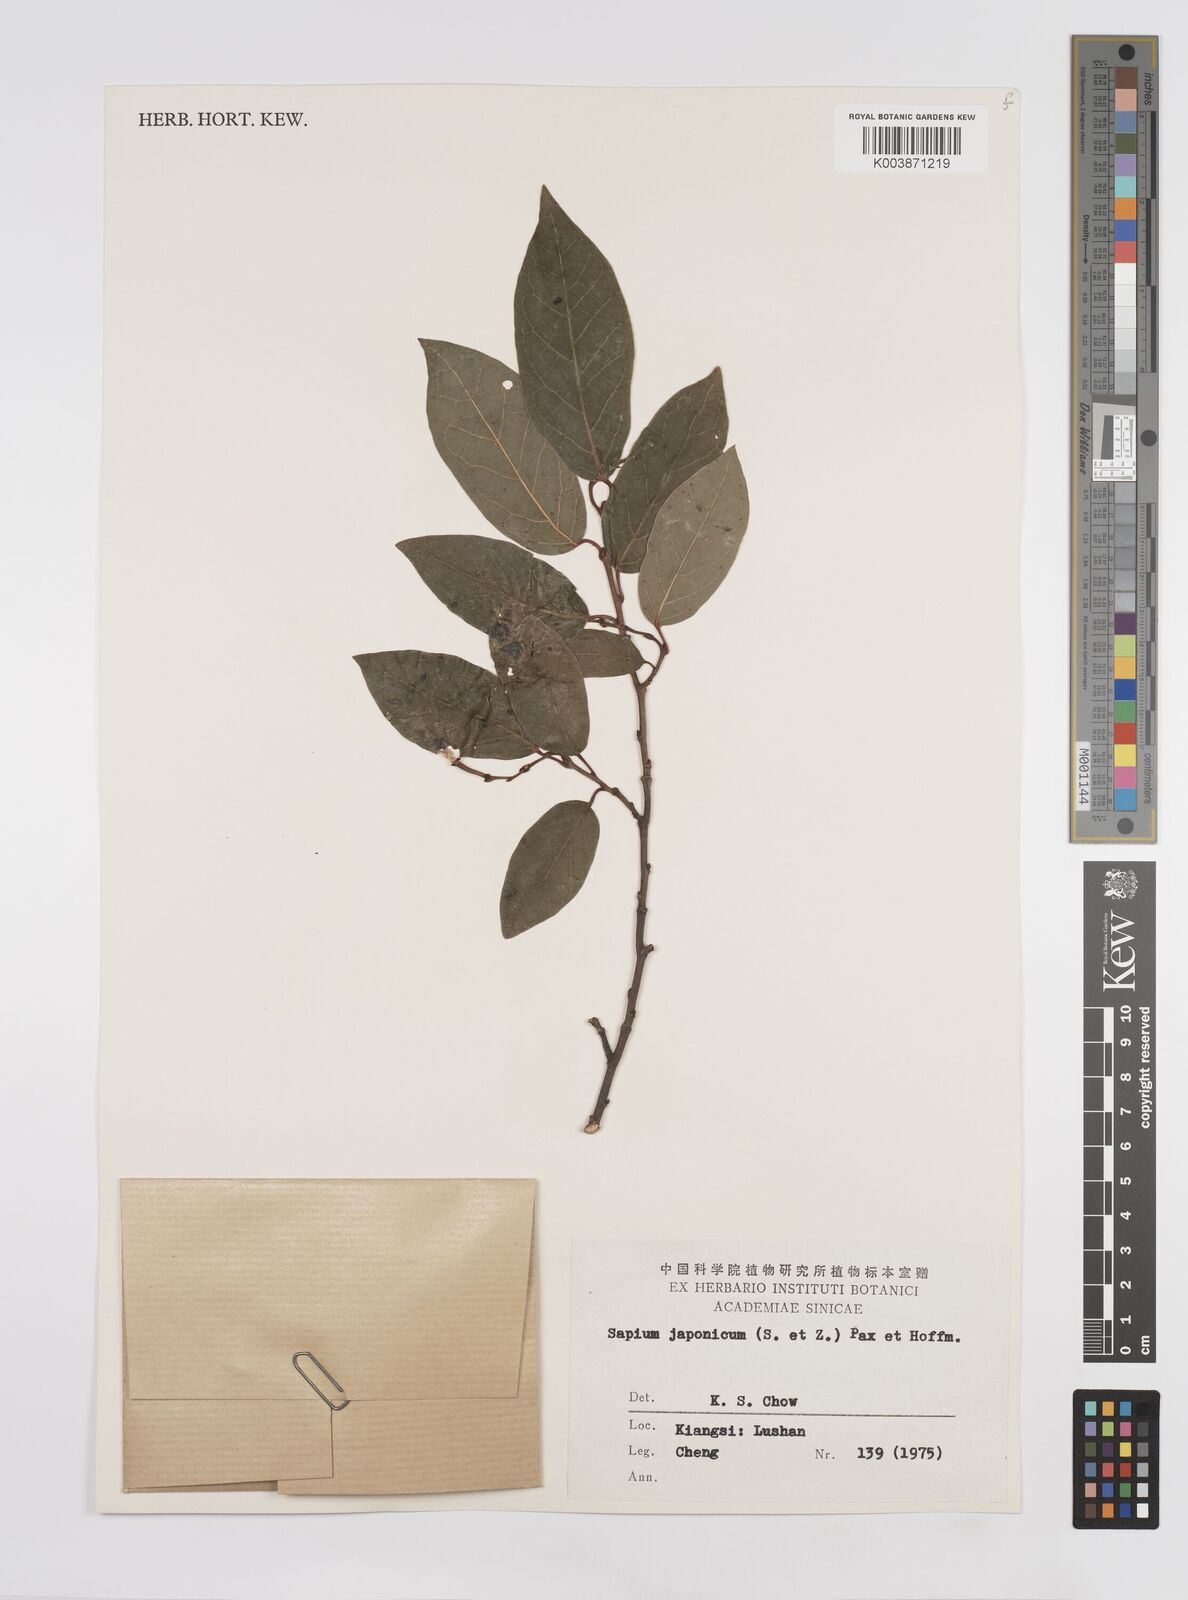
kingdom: Plantae
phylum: Tracheophyta
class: Magnoliopsida
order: Malpighiales
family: Euphorbiaceae
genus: Neoshirakia
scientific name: Neoshirakia japonica
